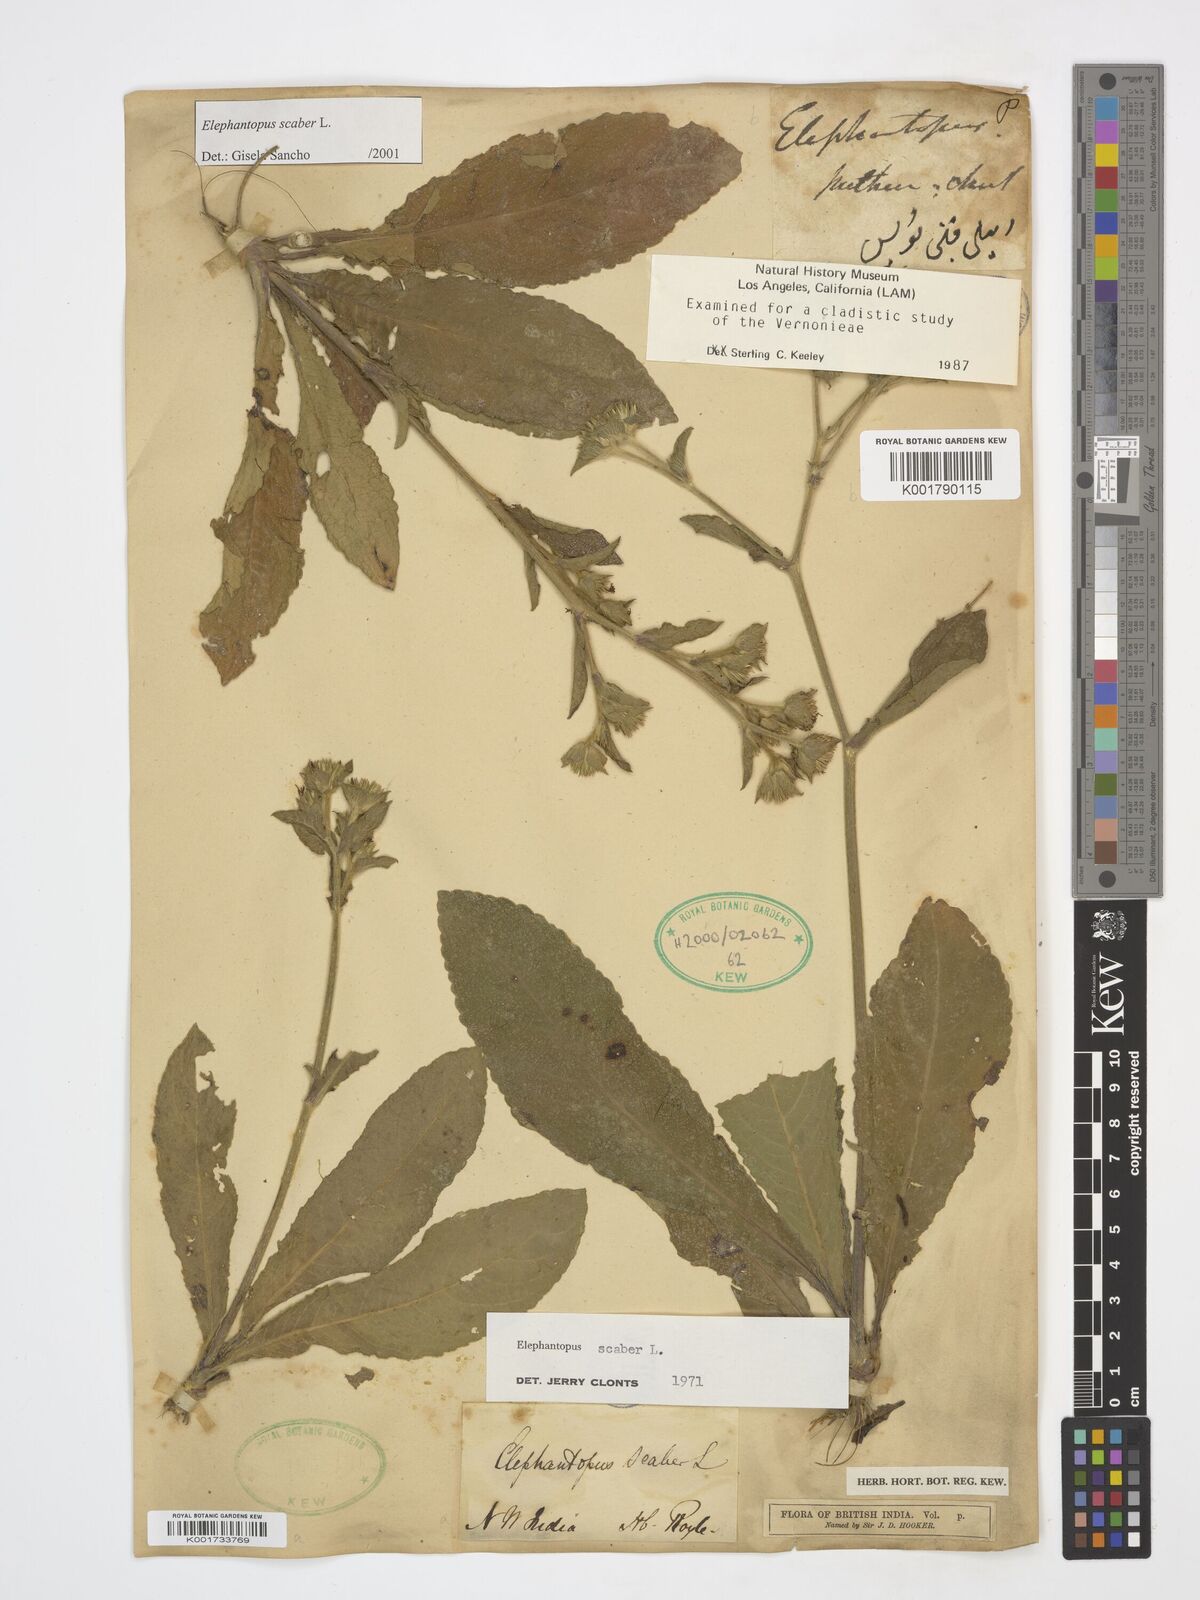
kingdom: Plantae
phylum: Tracheophyta
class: Magnoliopsida
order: Asterales
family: Asteraceae
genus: Elephantopus
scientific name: Elephantopus scaber
